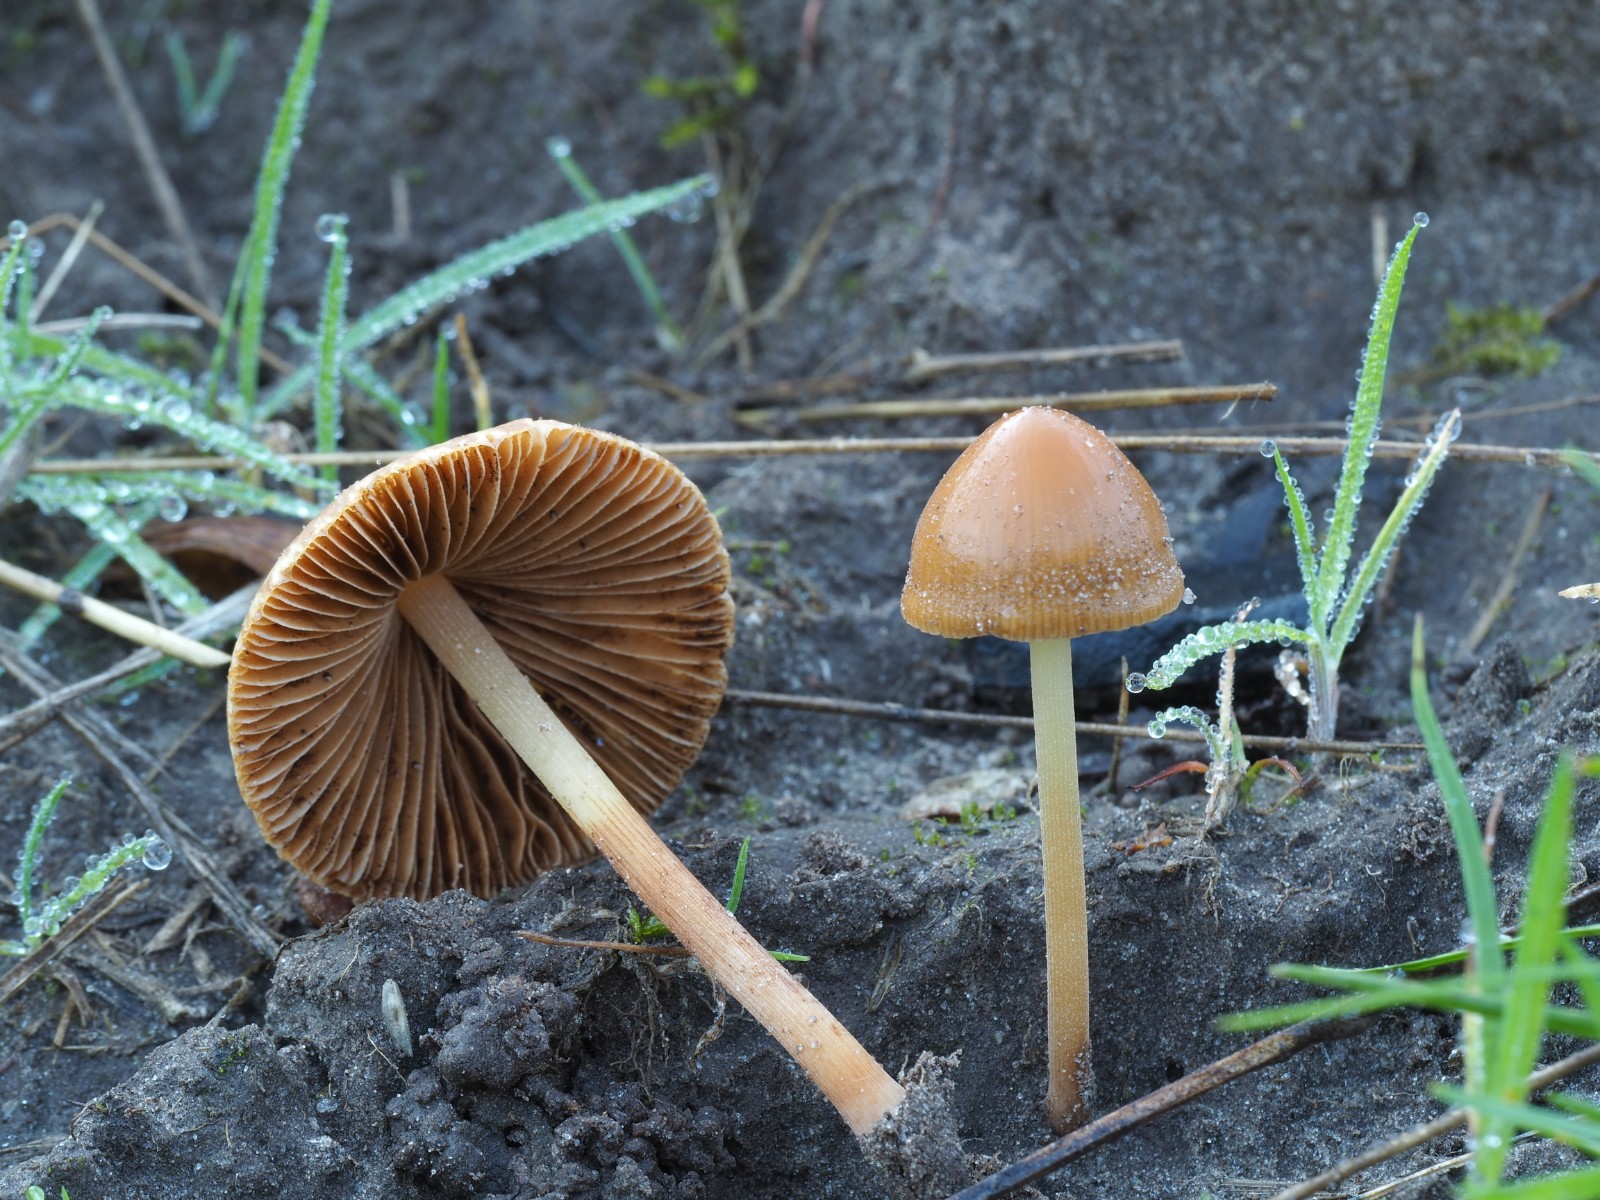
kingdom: Fungi
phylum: Basidiomycota
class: Agaricomycetes
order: Agaricales
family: Bolbitiaceae
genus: Conocybe
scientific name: Conocybe alboradicans
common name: rod-keglehat
